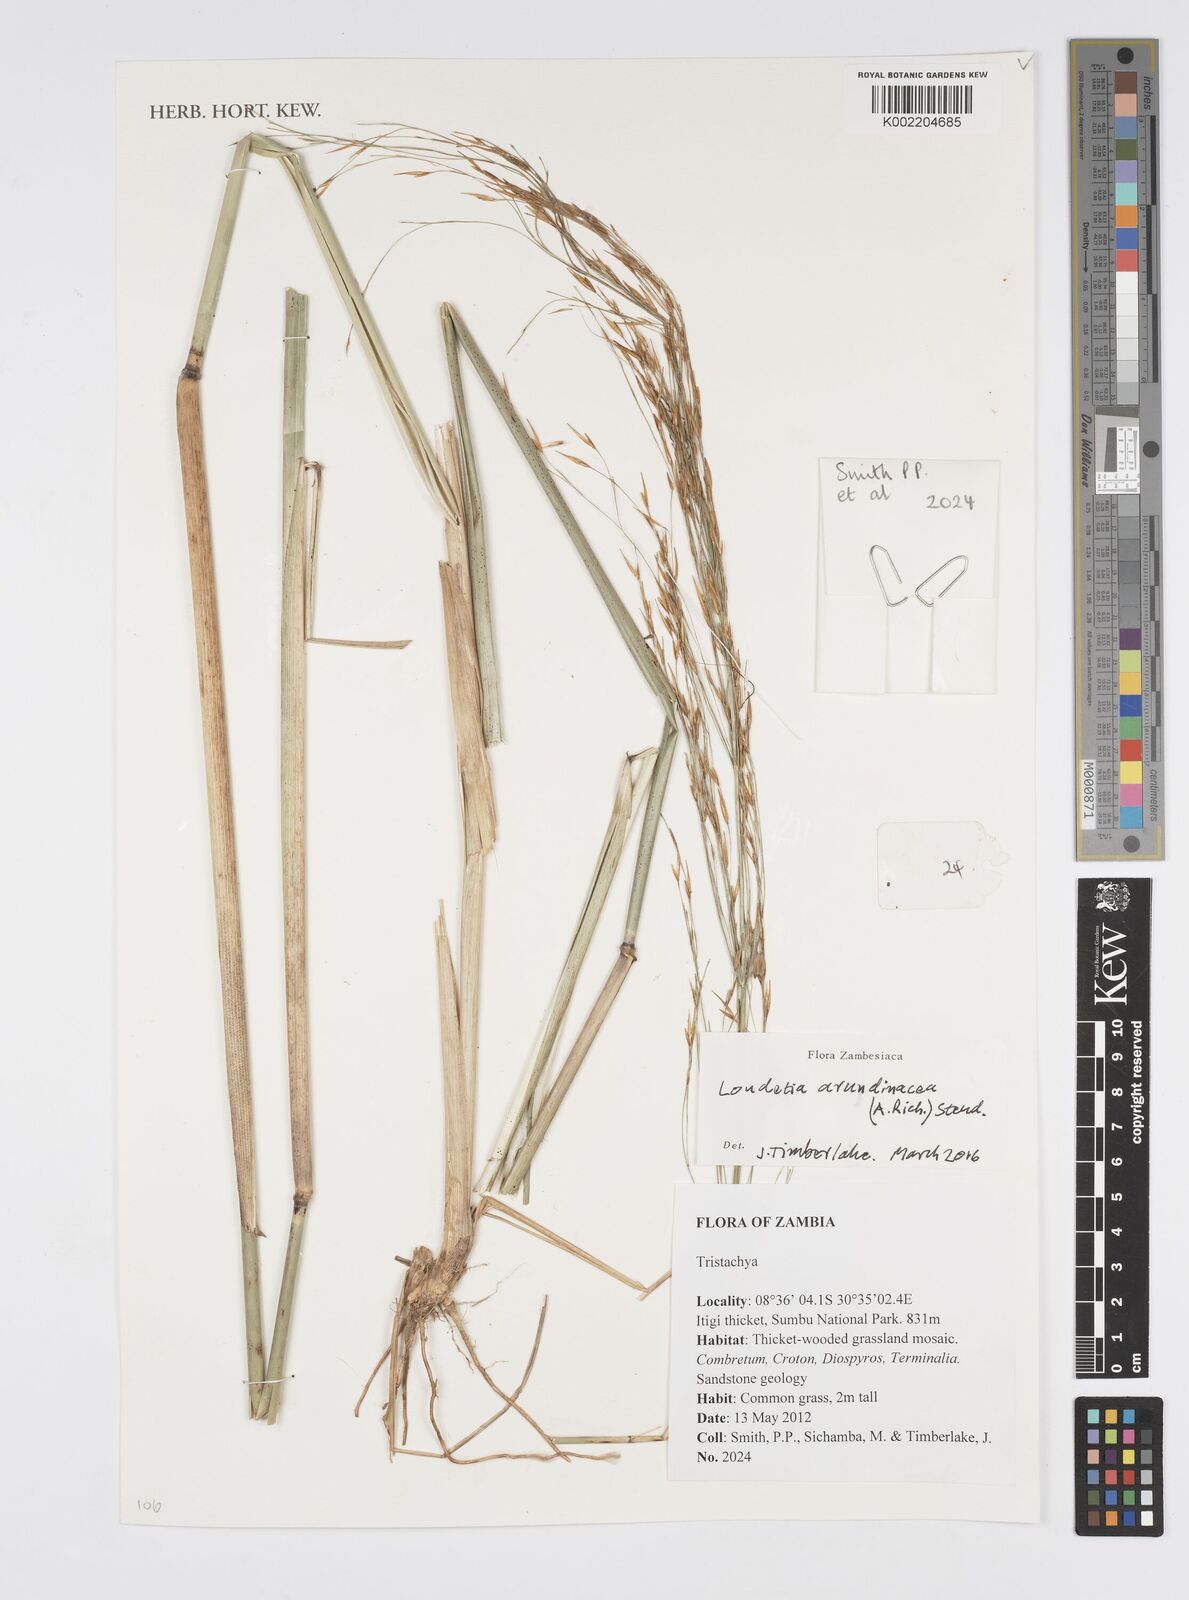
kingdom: Plantae
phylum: Tracheophyta
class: Liliopsida
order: Poales
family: Poaceae
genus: Loudetia
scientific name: Loudetia arundinacea
